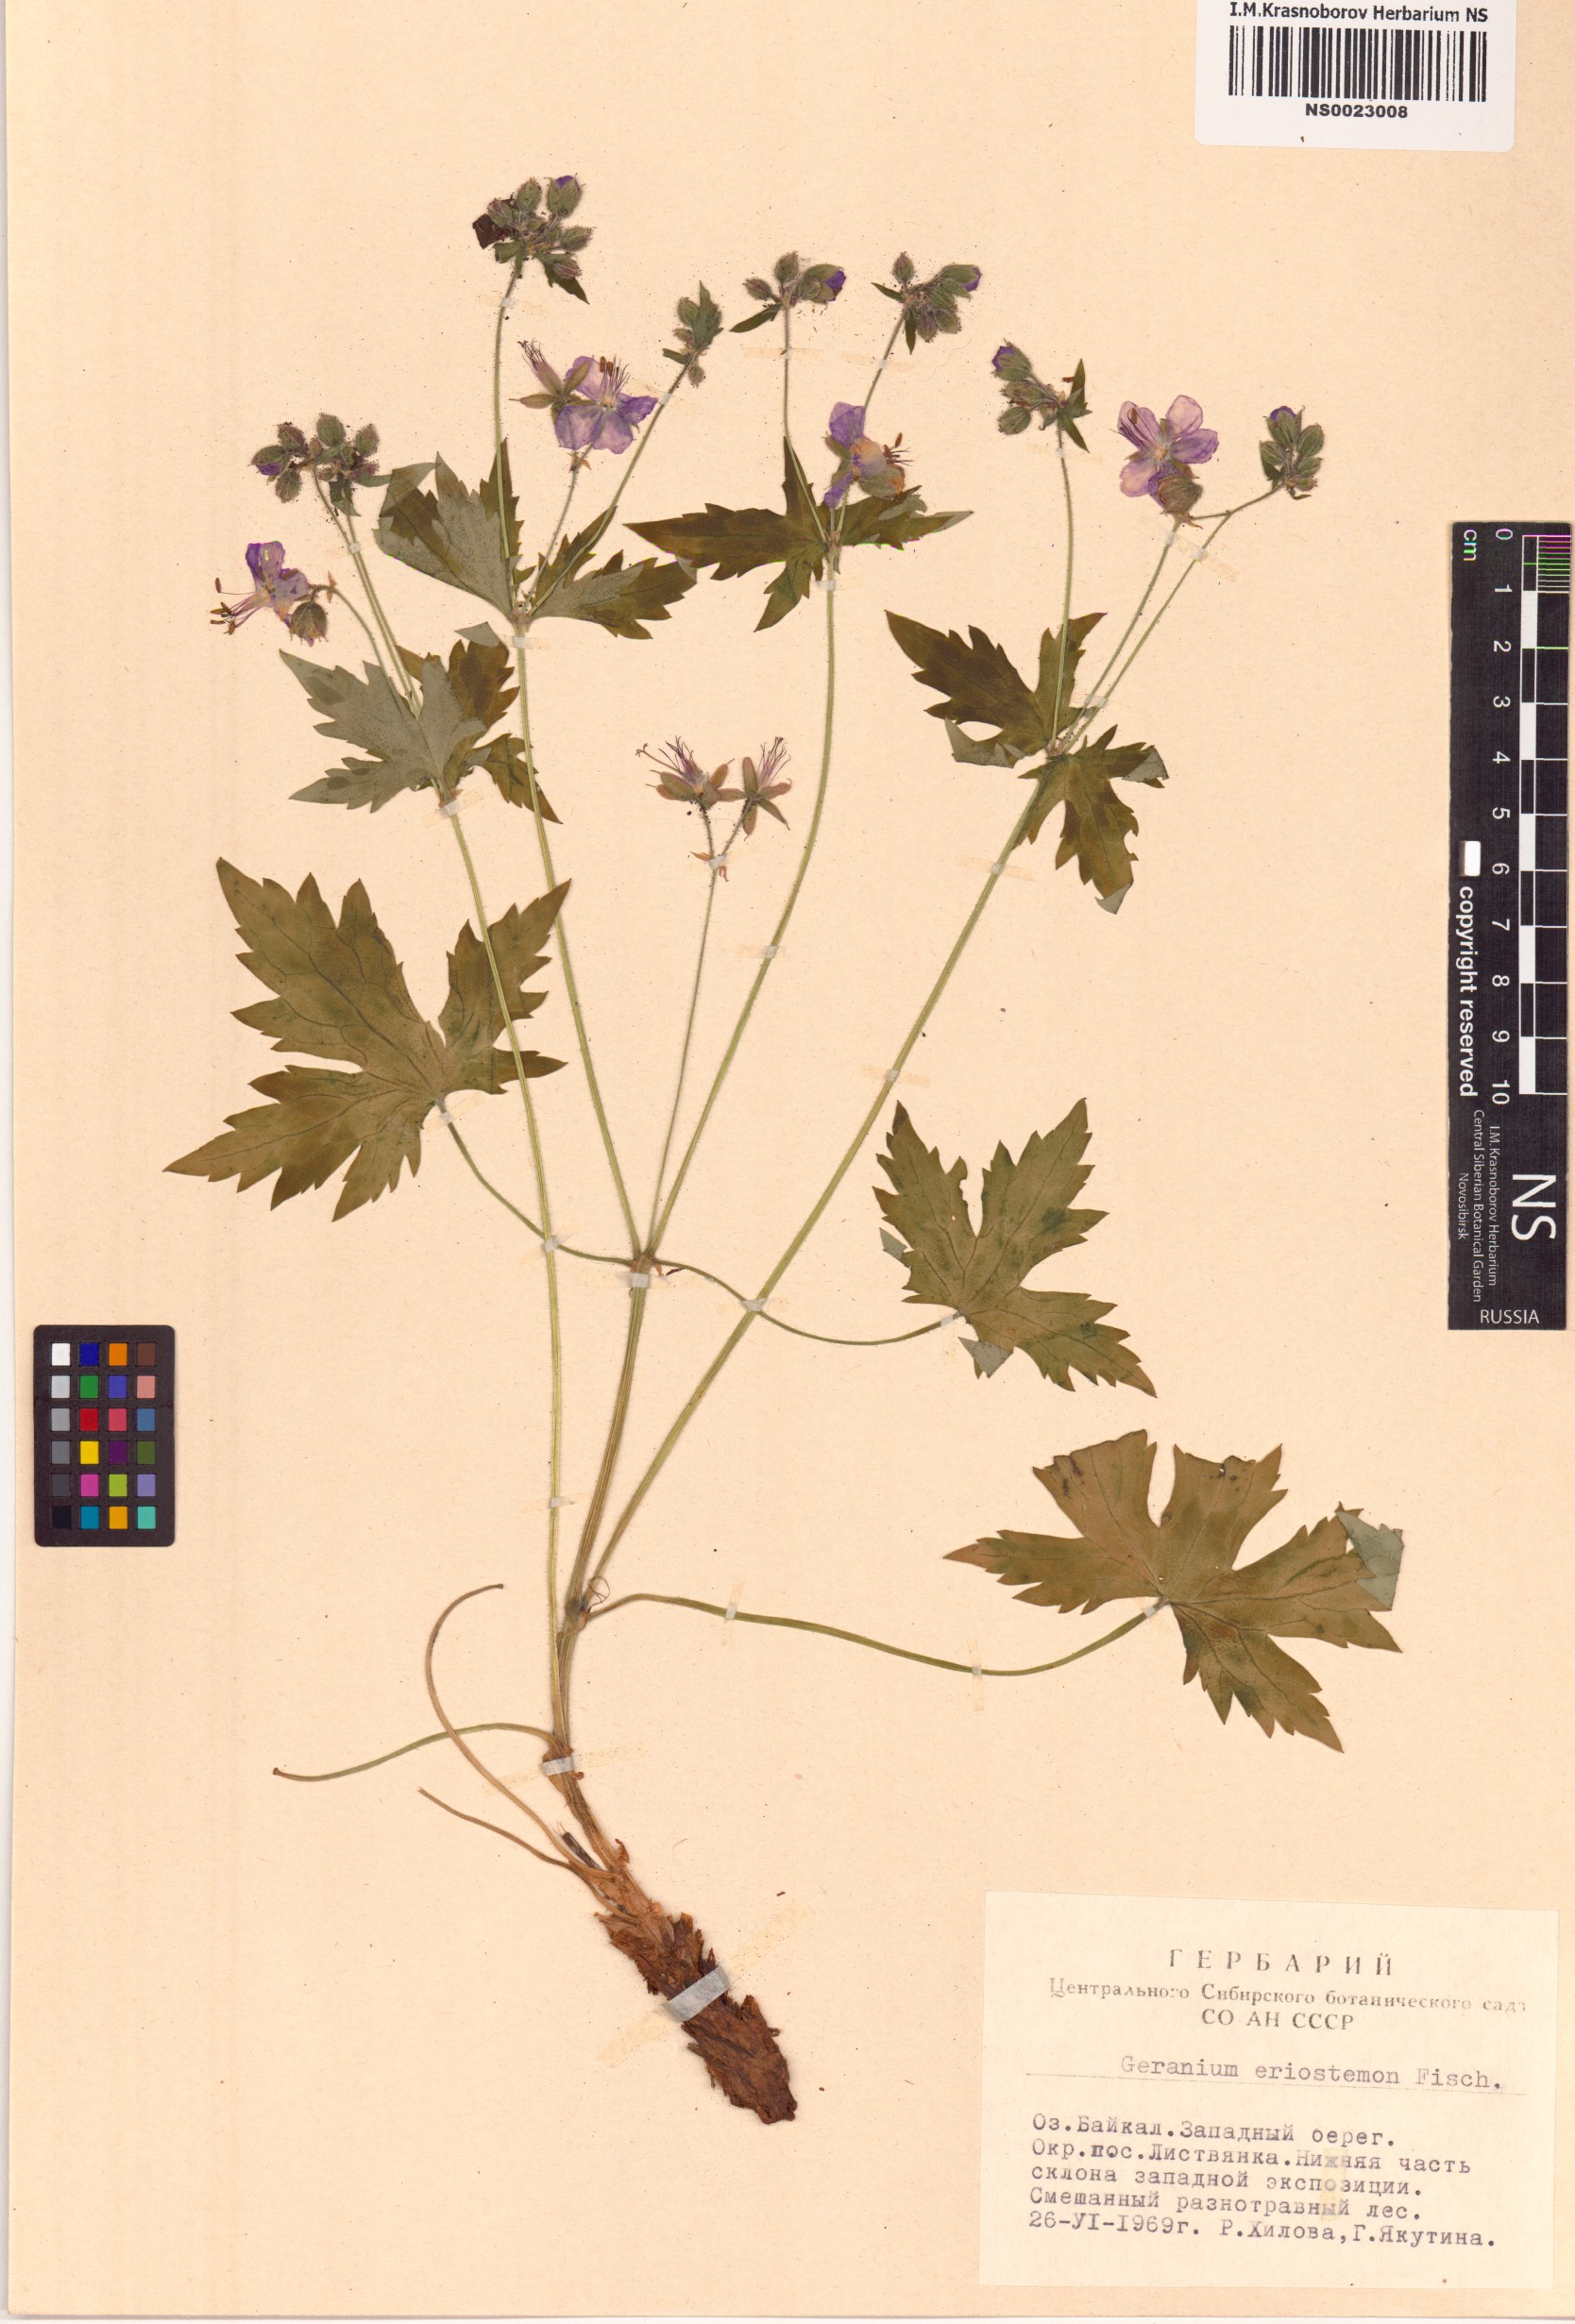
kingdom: Plantae
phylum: Tracheophyta
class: Magnoliopsida
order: Geraniales
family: Geraniaceae
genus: Geranium
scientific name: Geranium platyanthum
